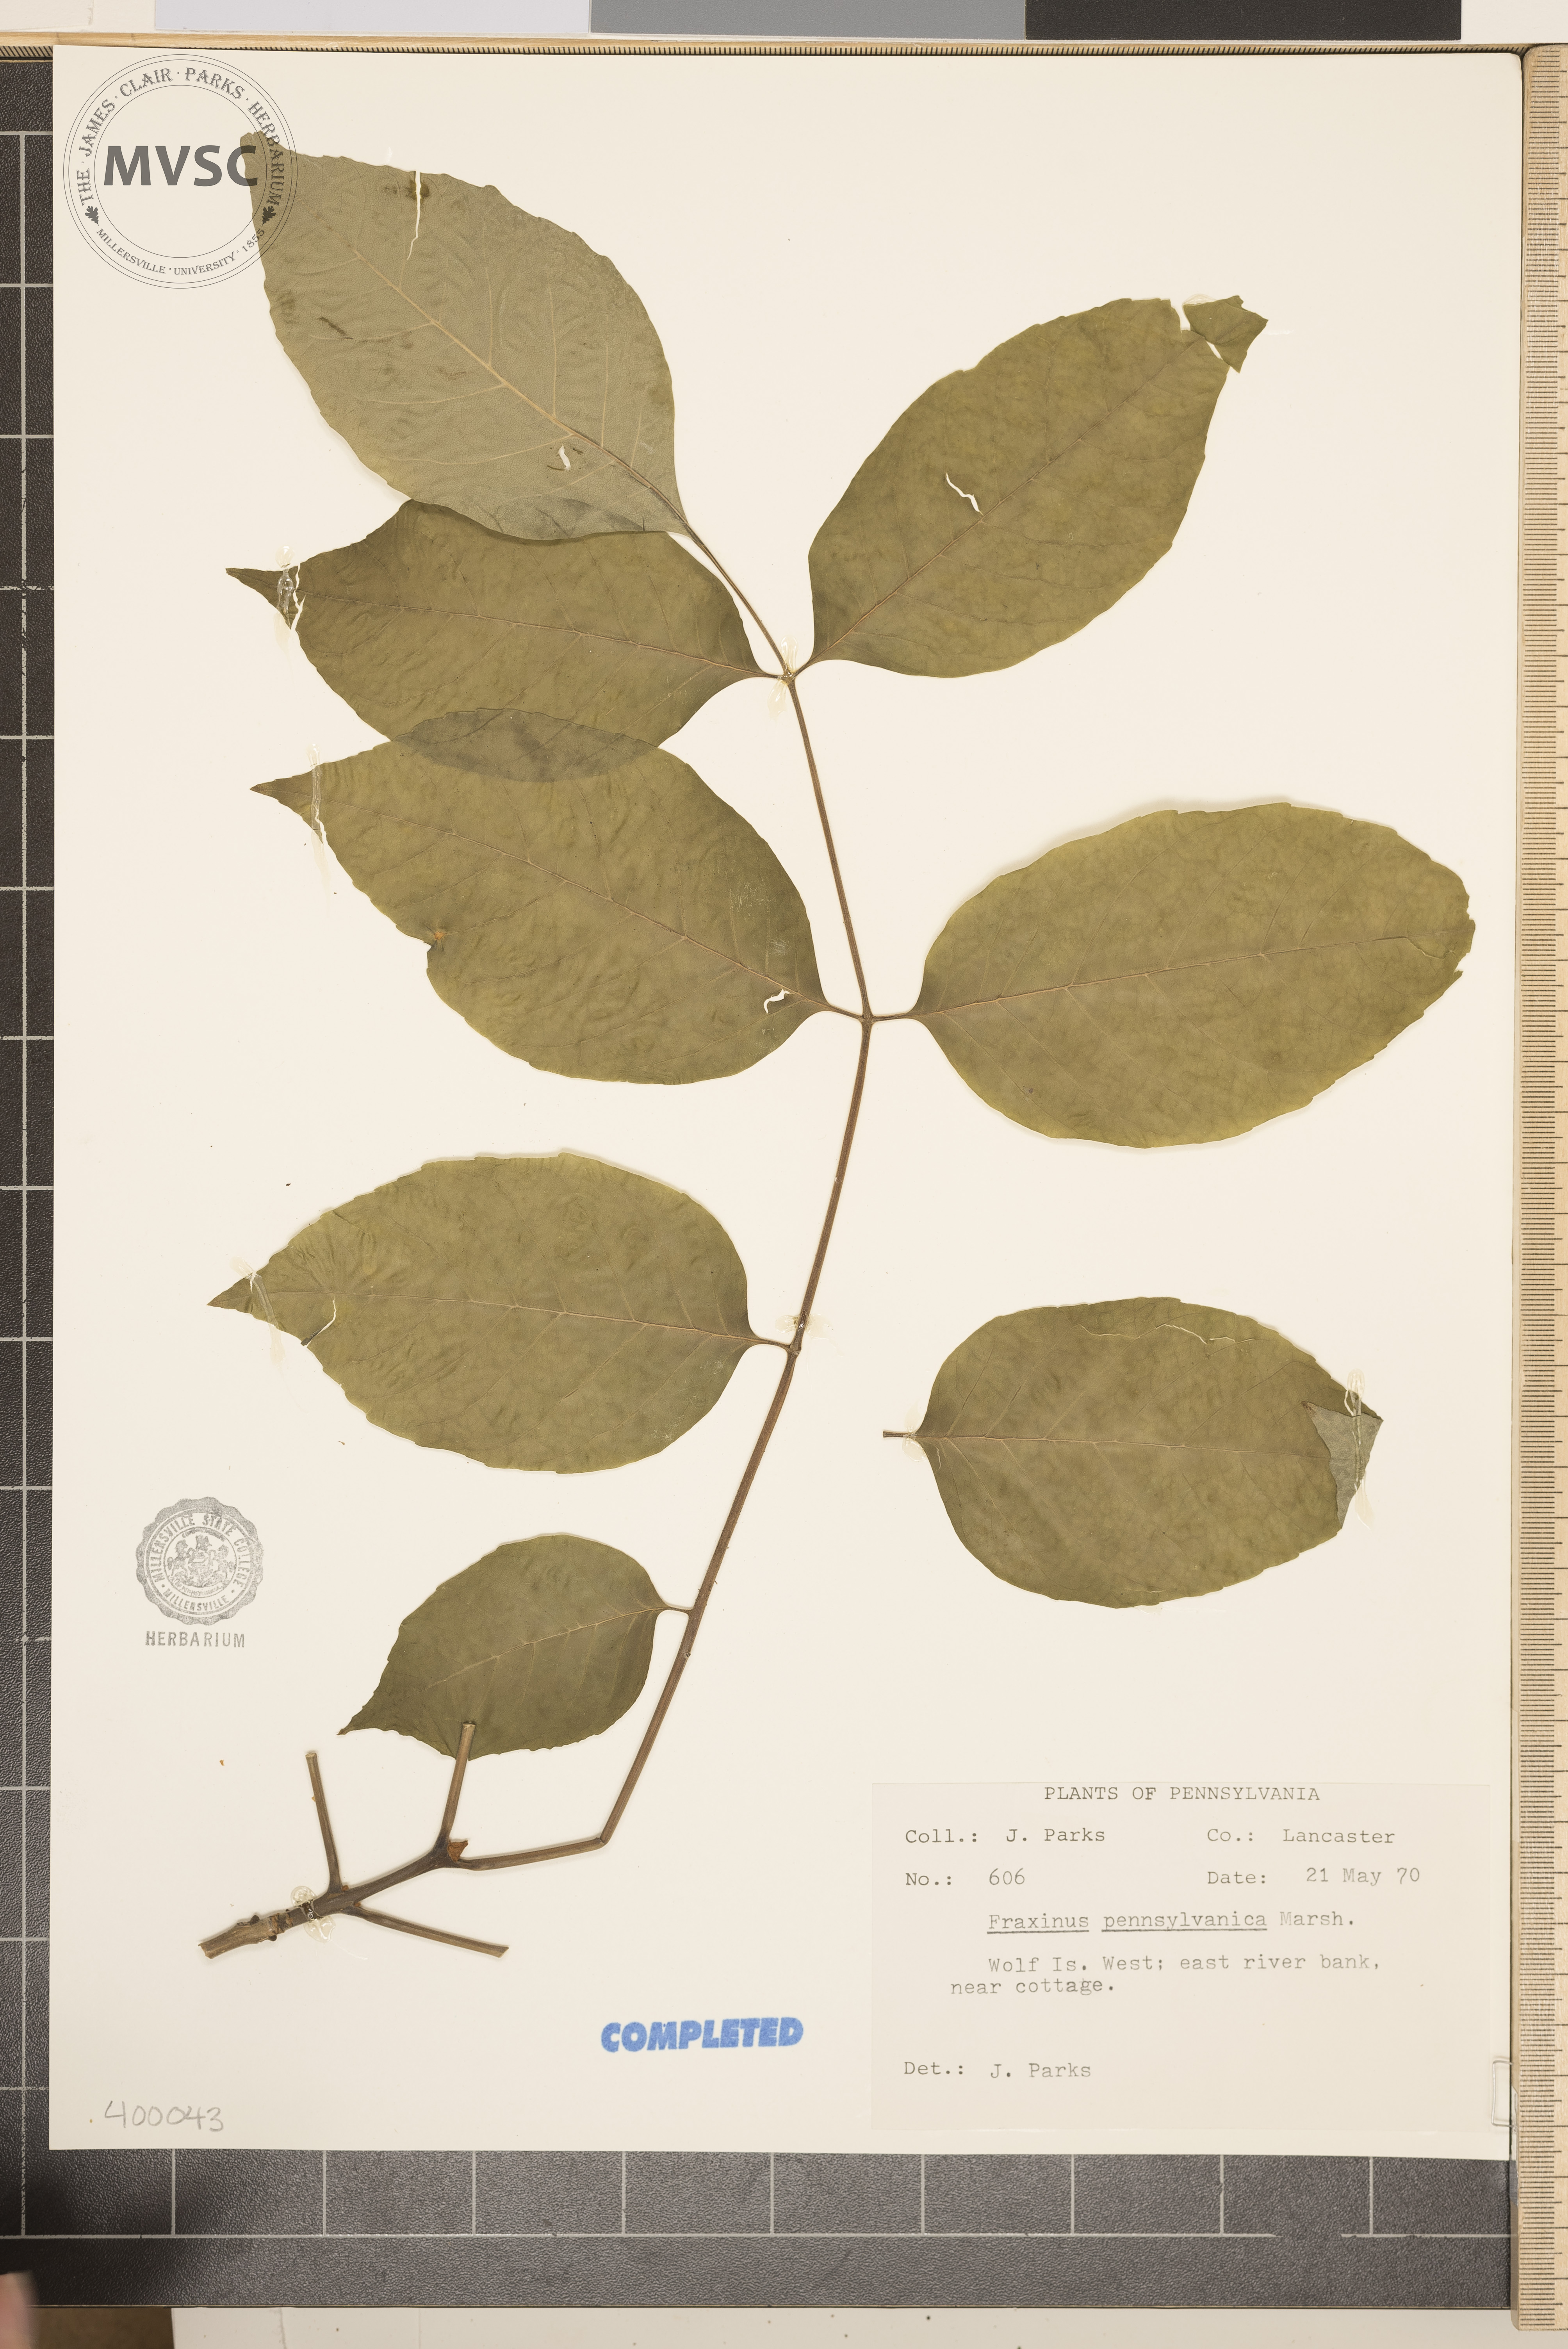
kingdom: Plantae
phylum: Tracheophyta
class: Magnoliopsida
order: Lamiales
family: Oleaceae
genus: Fraxinus
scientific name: Fraxinus pennsylvanica
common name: ash
